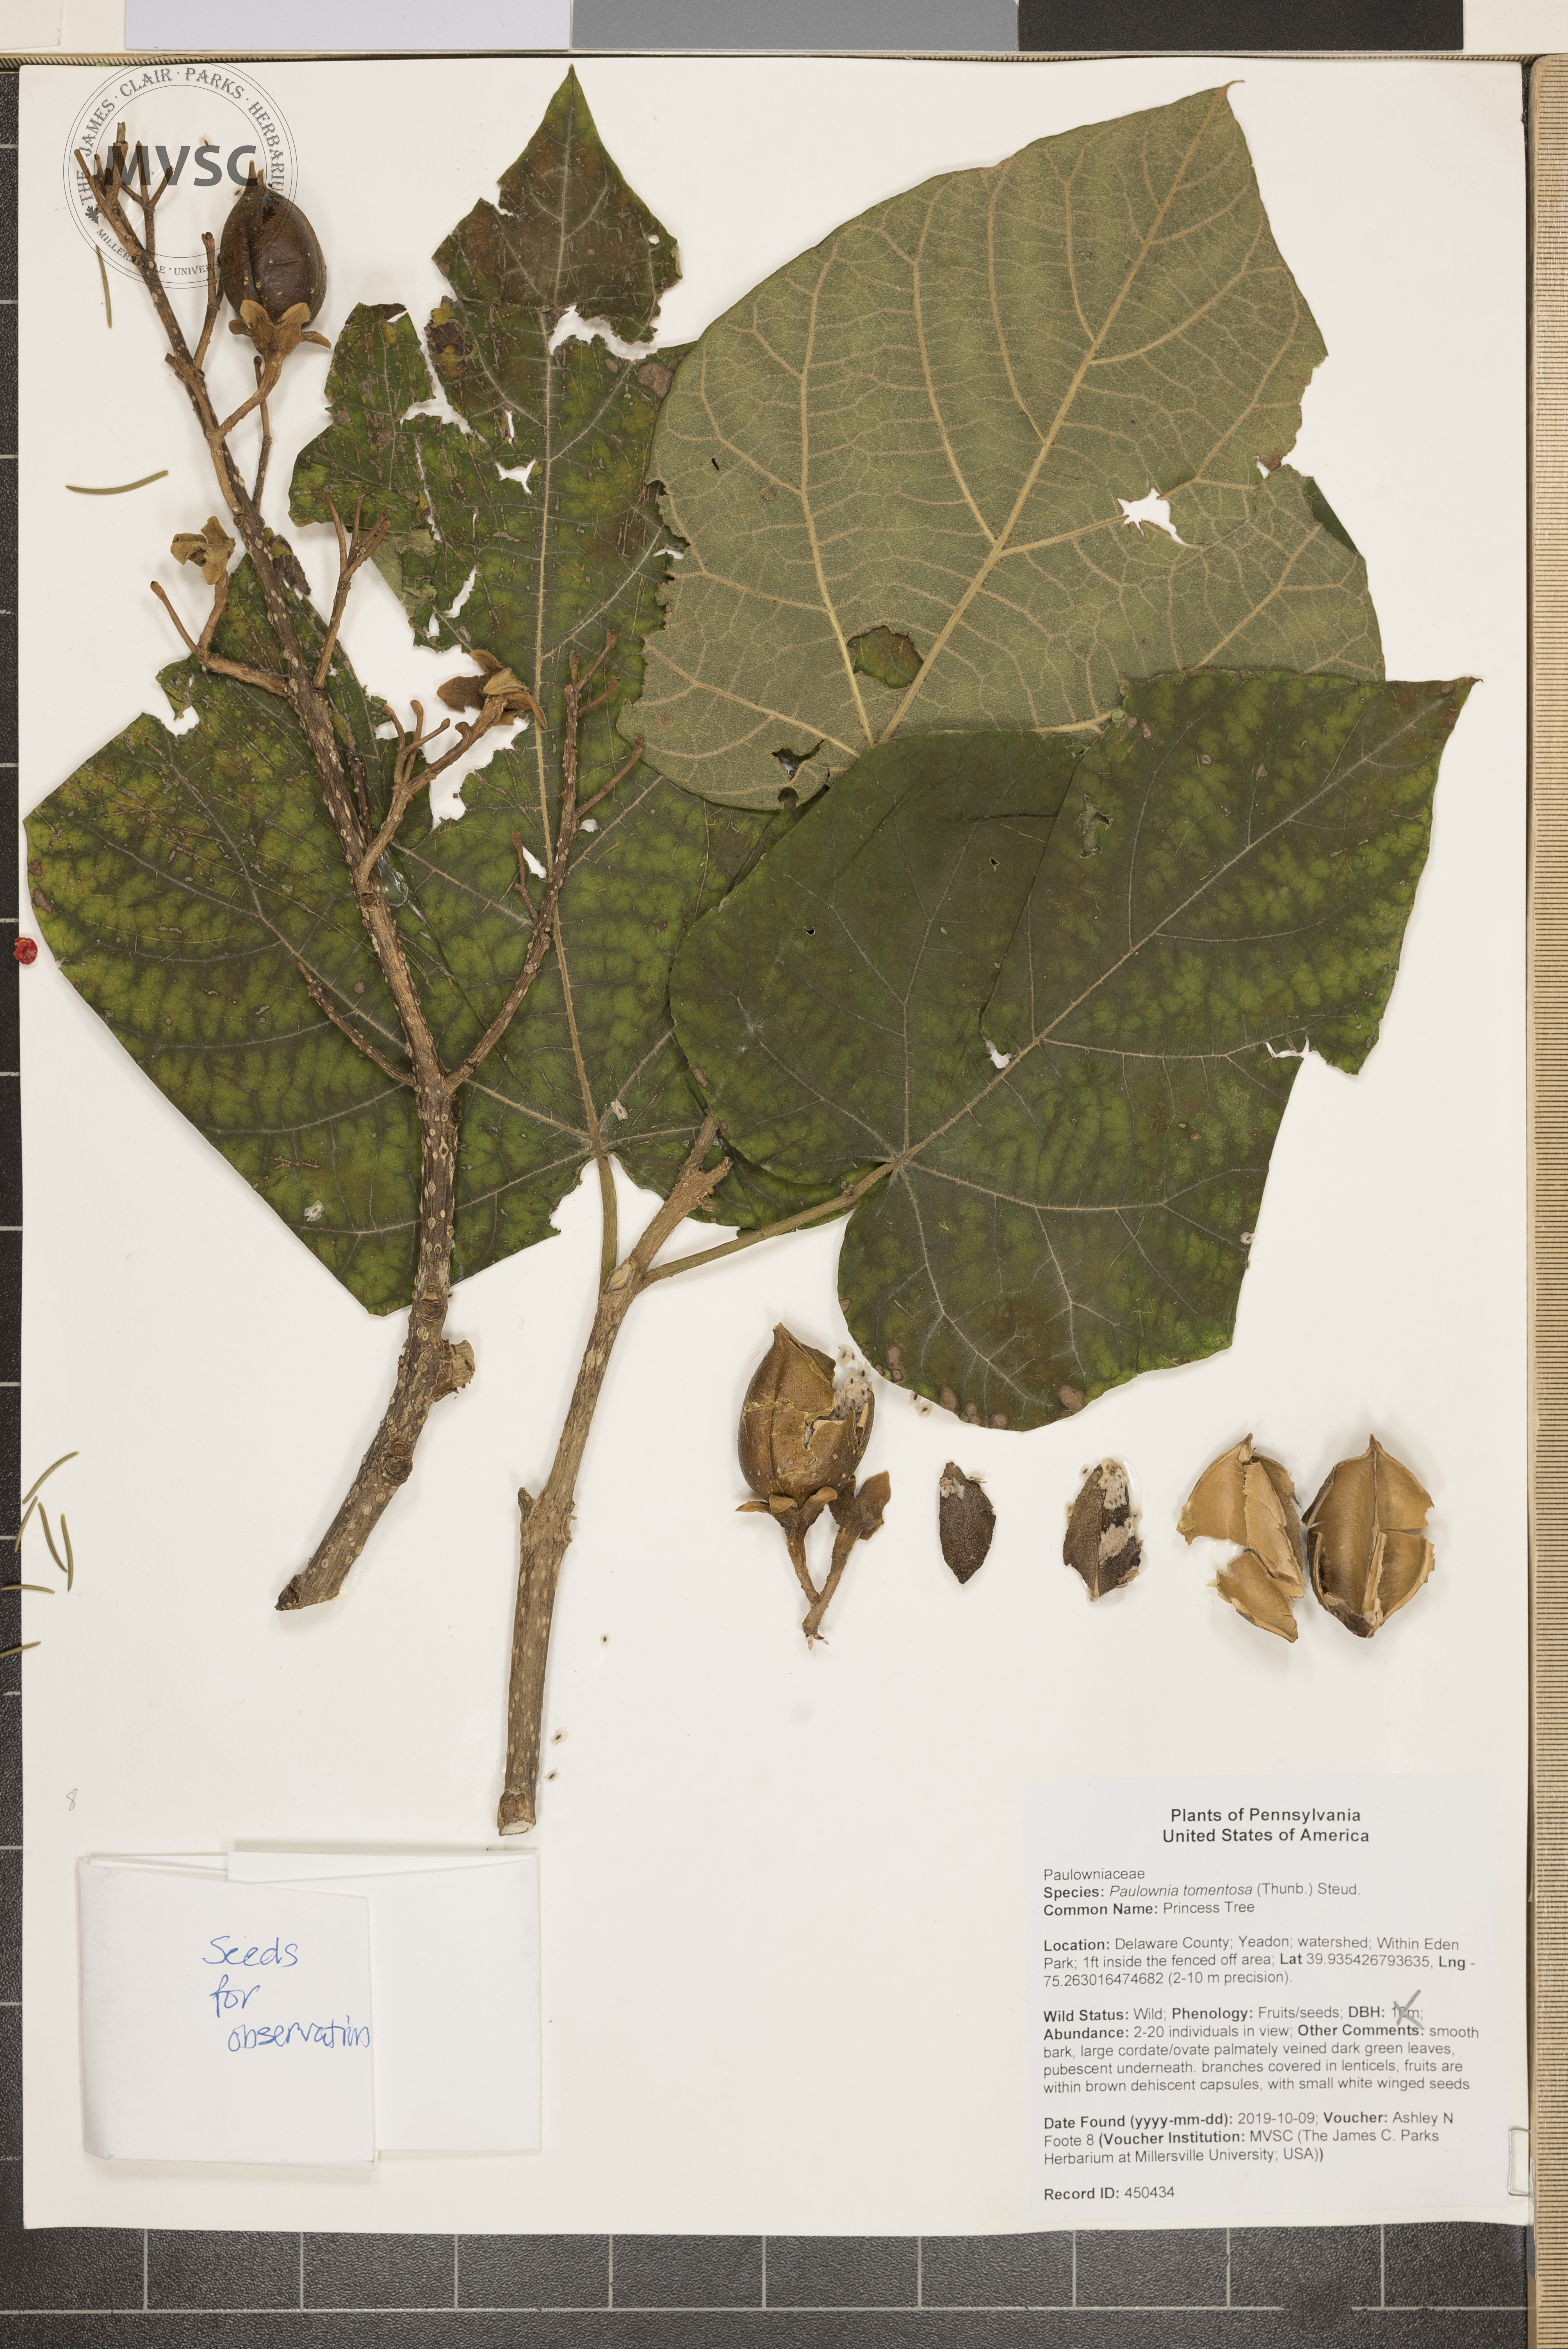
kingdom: Plantae
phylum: Tracheophyta
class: Magnoliopsida
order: Lamiales
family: Paulowniaceae
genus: Paulownia
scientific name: Paulownia tomentosa
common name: Princess Tree
